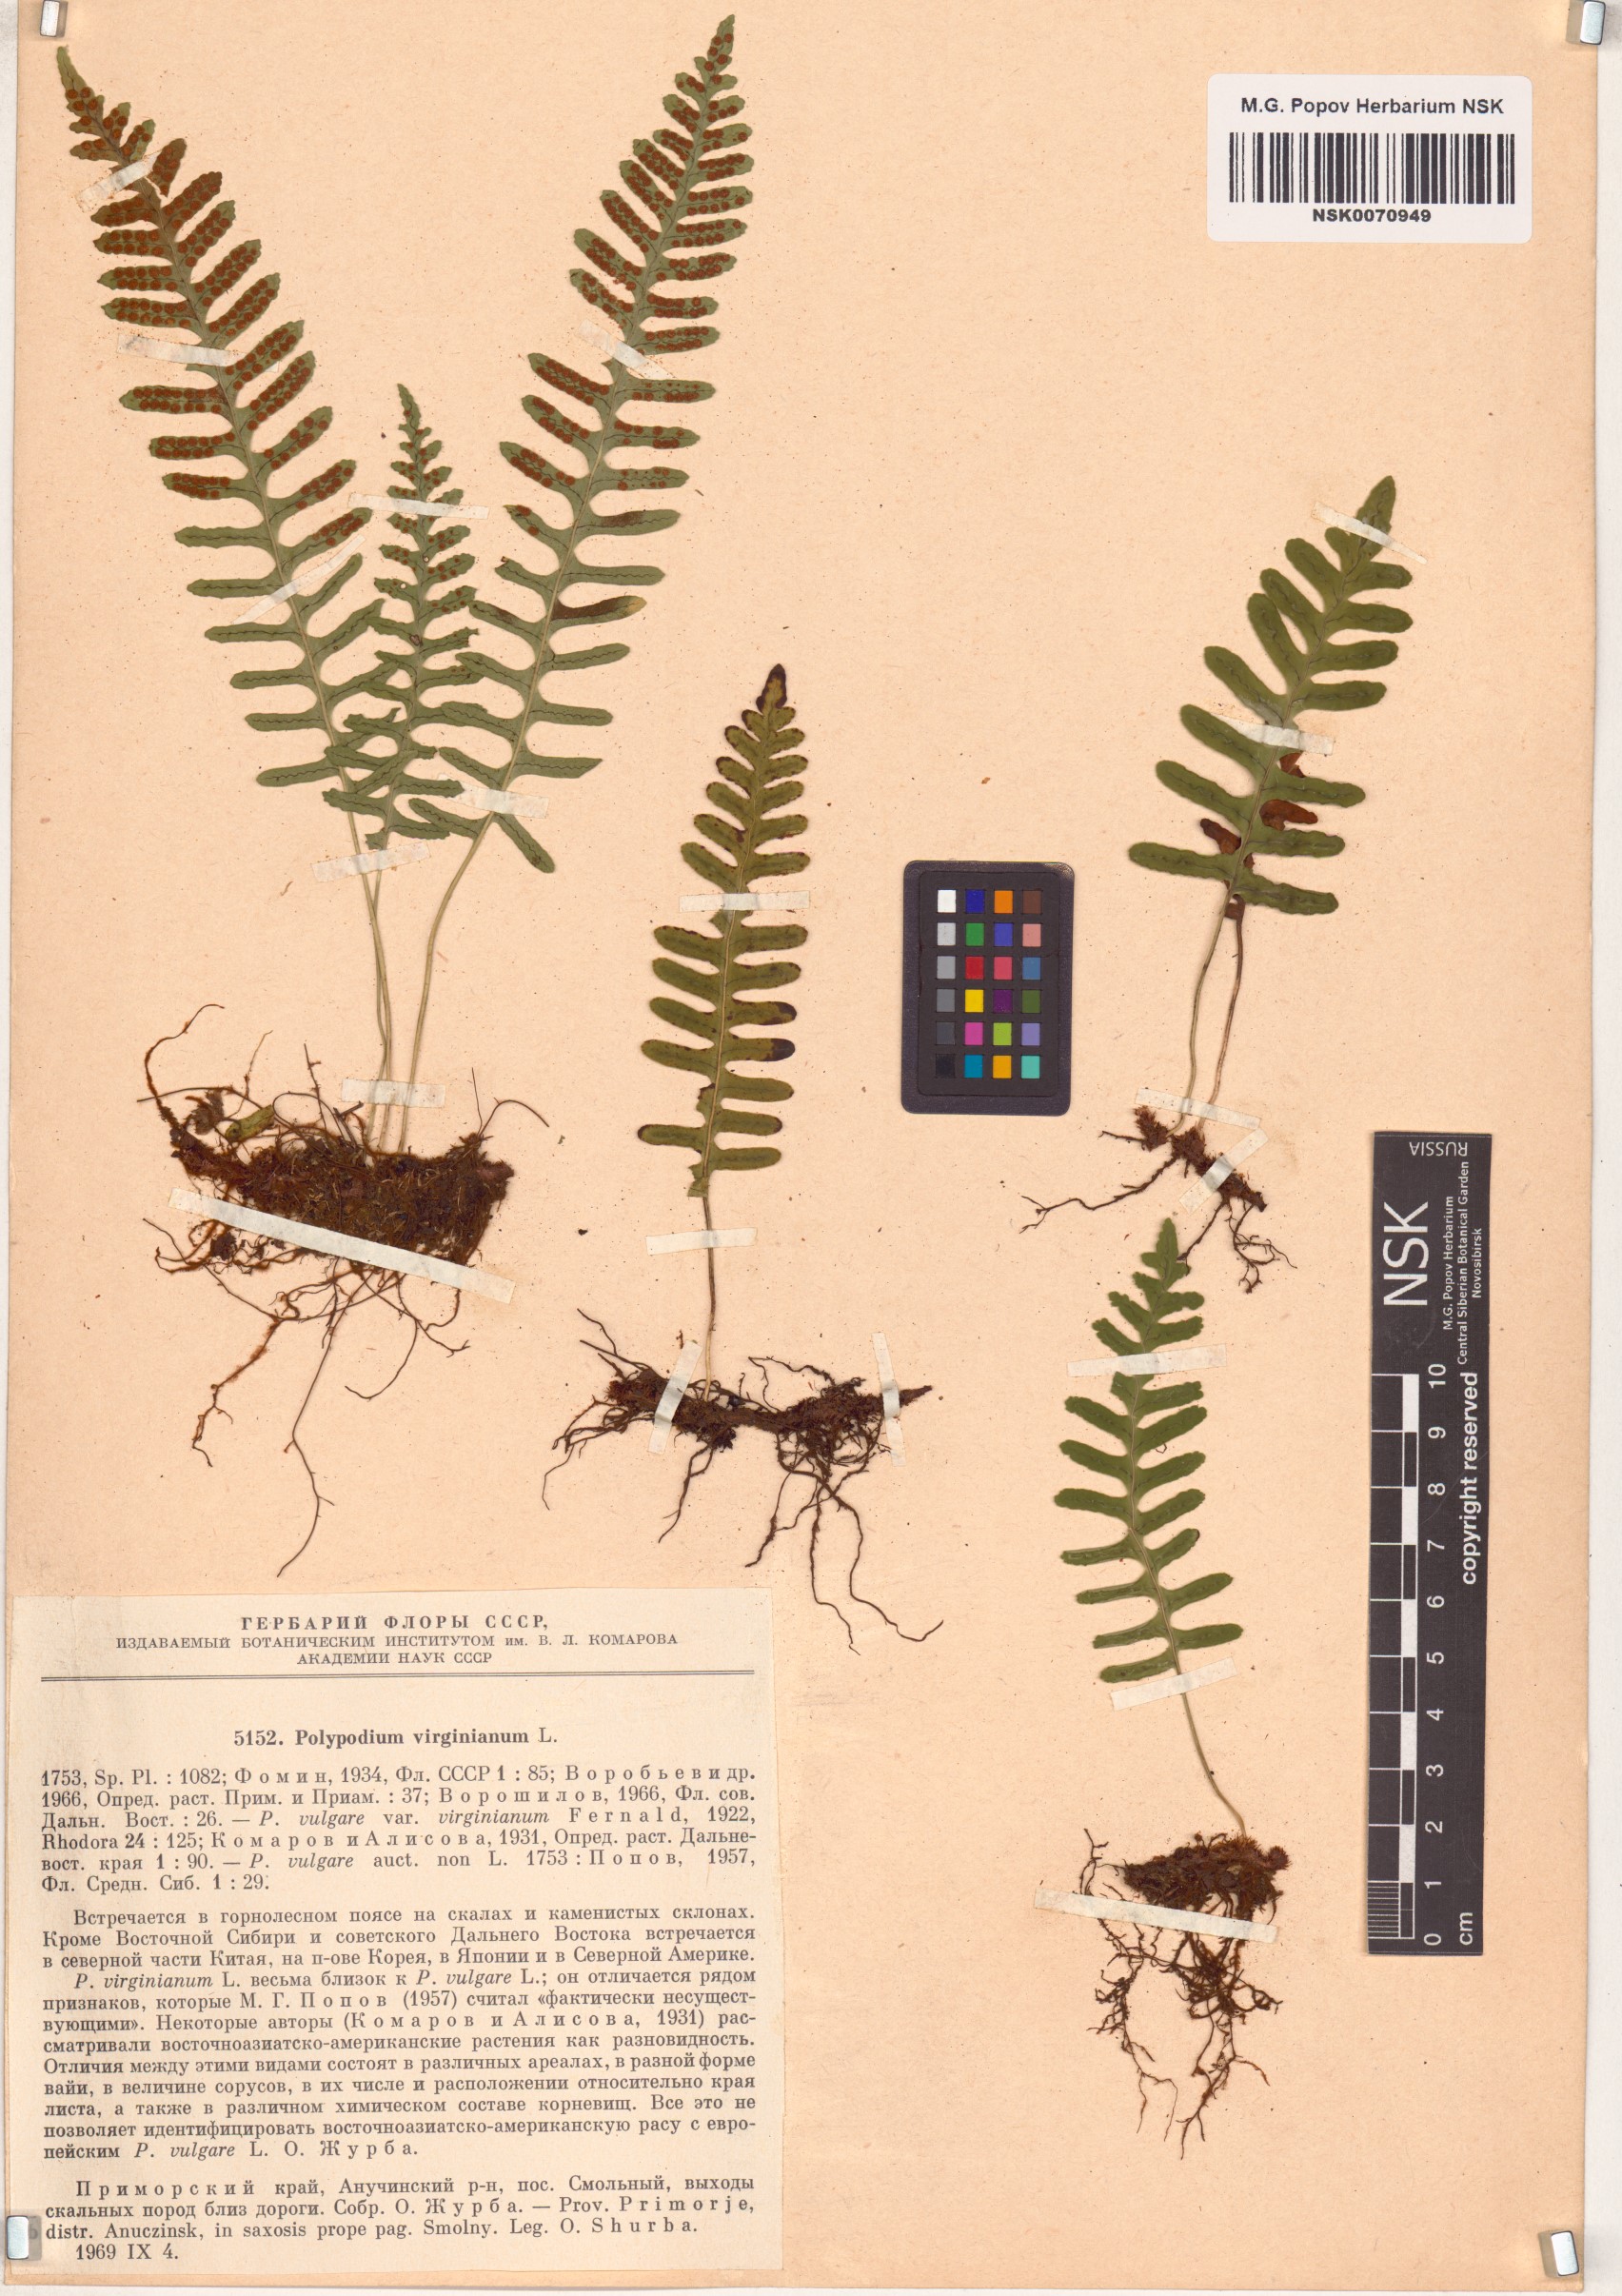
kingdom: Plantae
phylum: Tracheophyta
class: Polypodiopsida
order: Polypodiales
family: Polypodiaceae
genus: Polypodium
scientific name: Polypodium virginianum
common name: American wall fern
